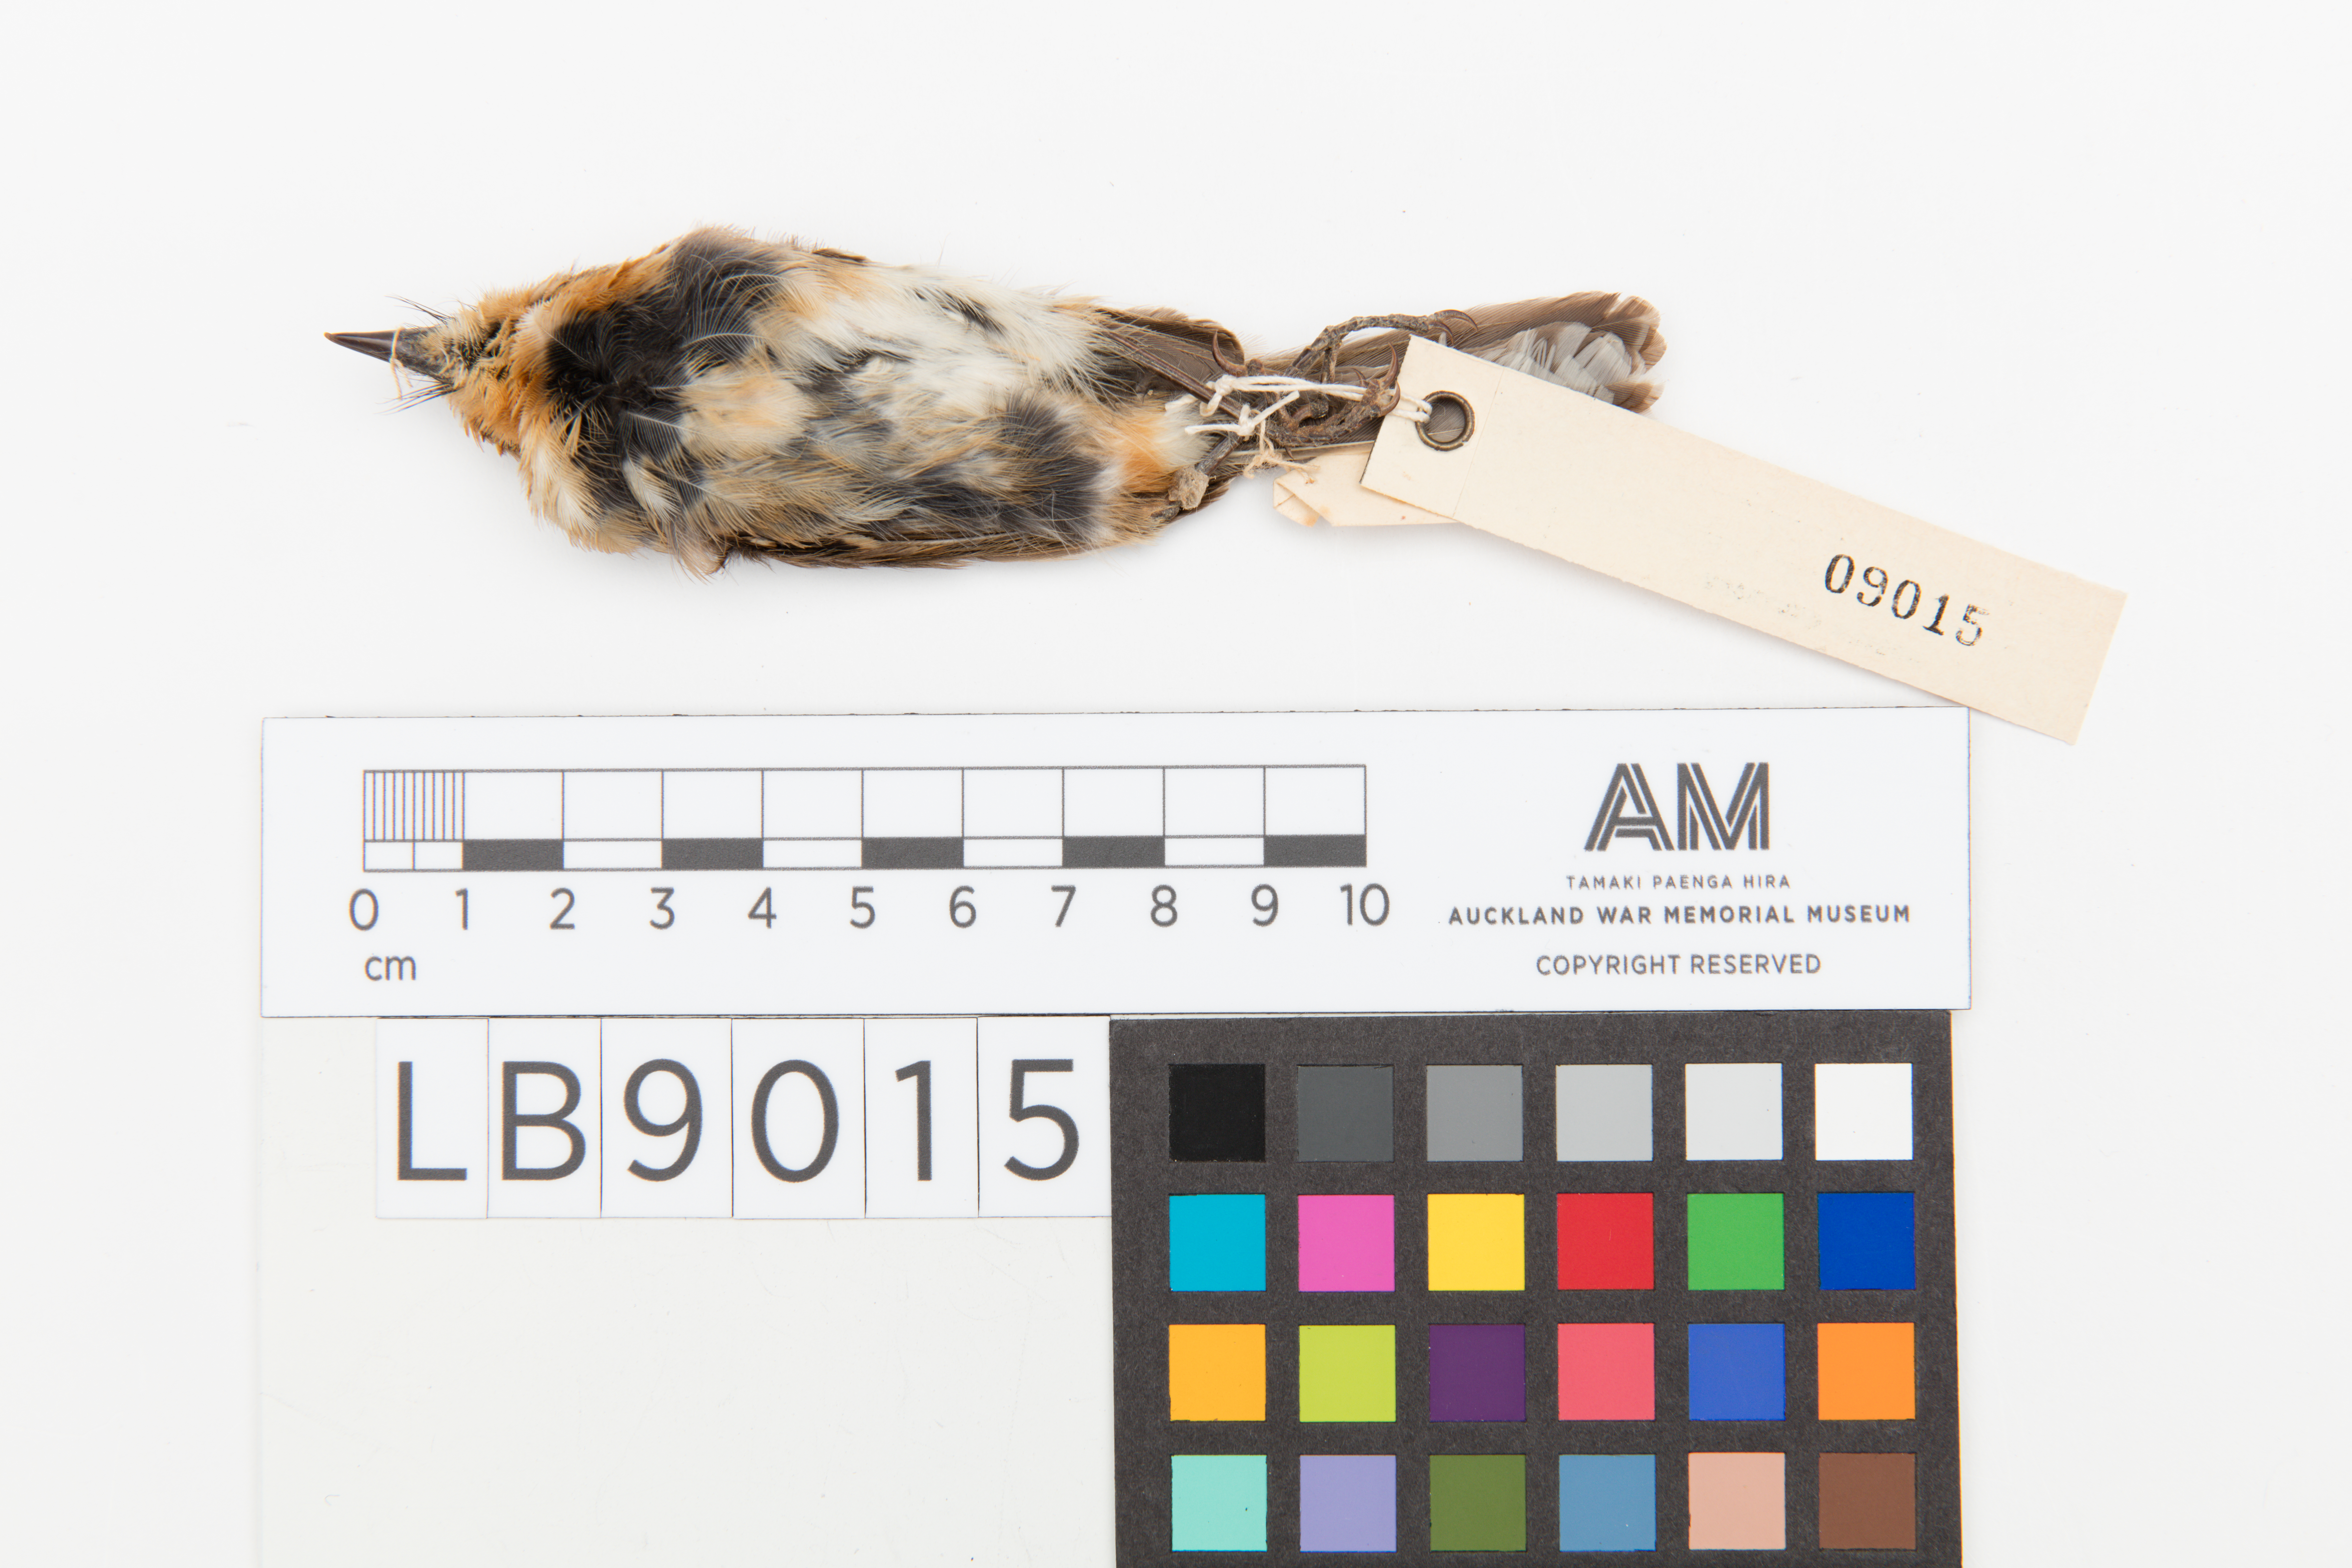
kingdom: Animalia
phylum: Chordata
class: Aves
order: Passeriformes
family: Monarchidae
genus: Chasiempis
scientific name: Chasiempis sclateri
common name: Kauai elepaio
